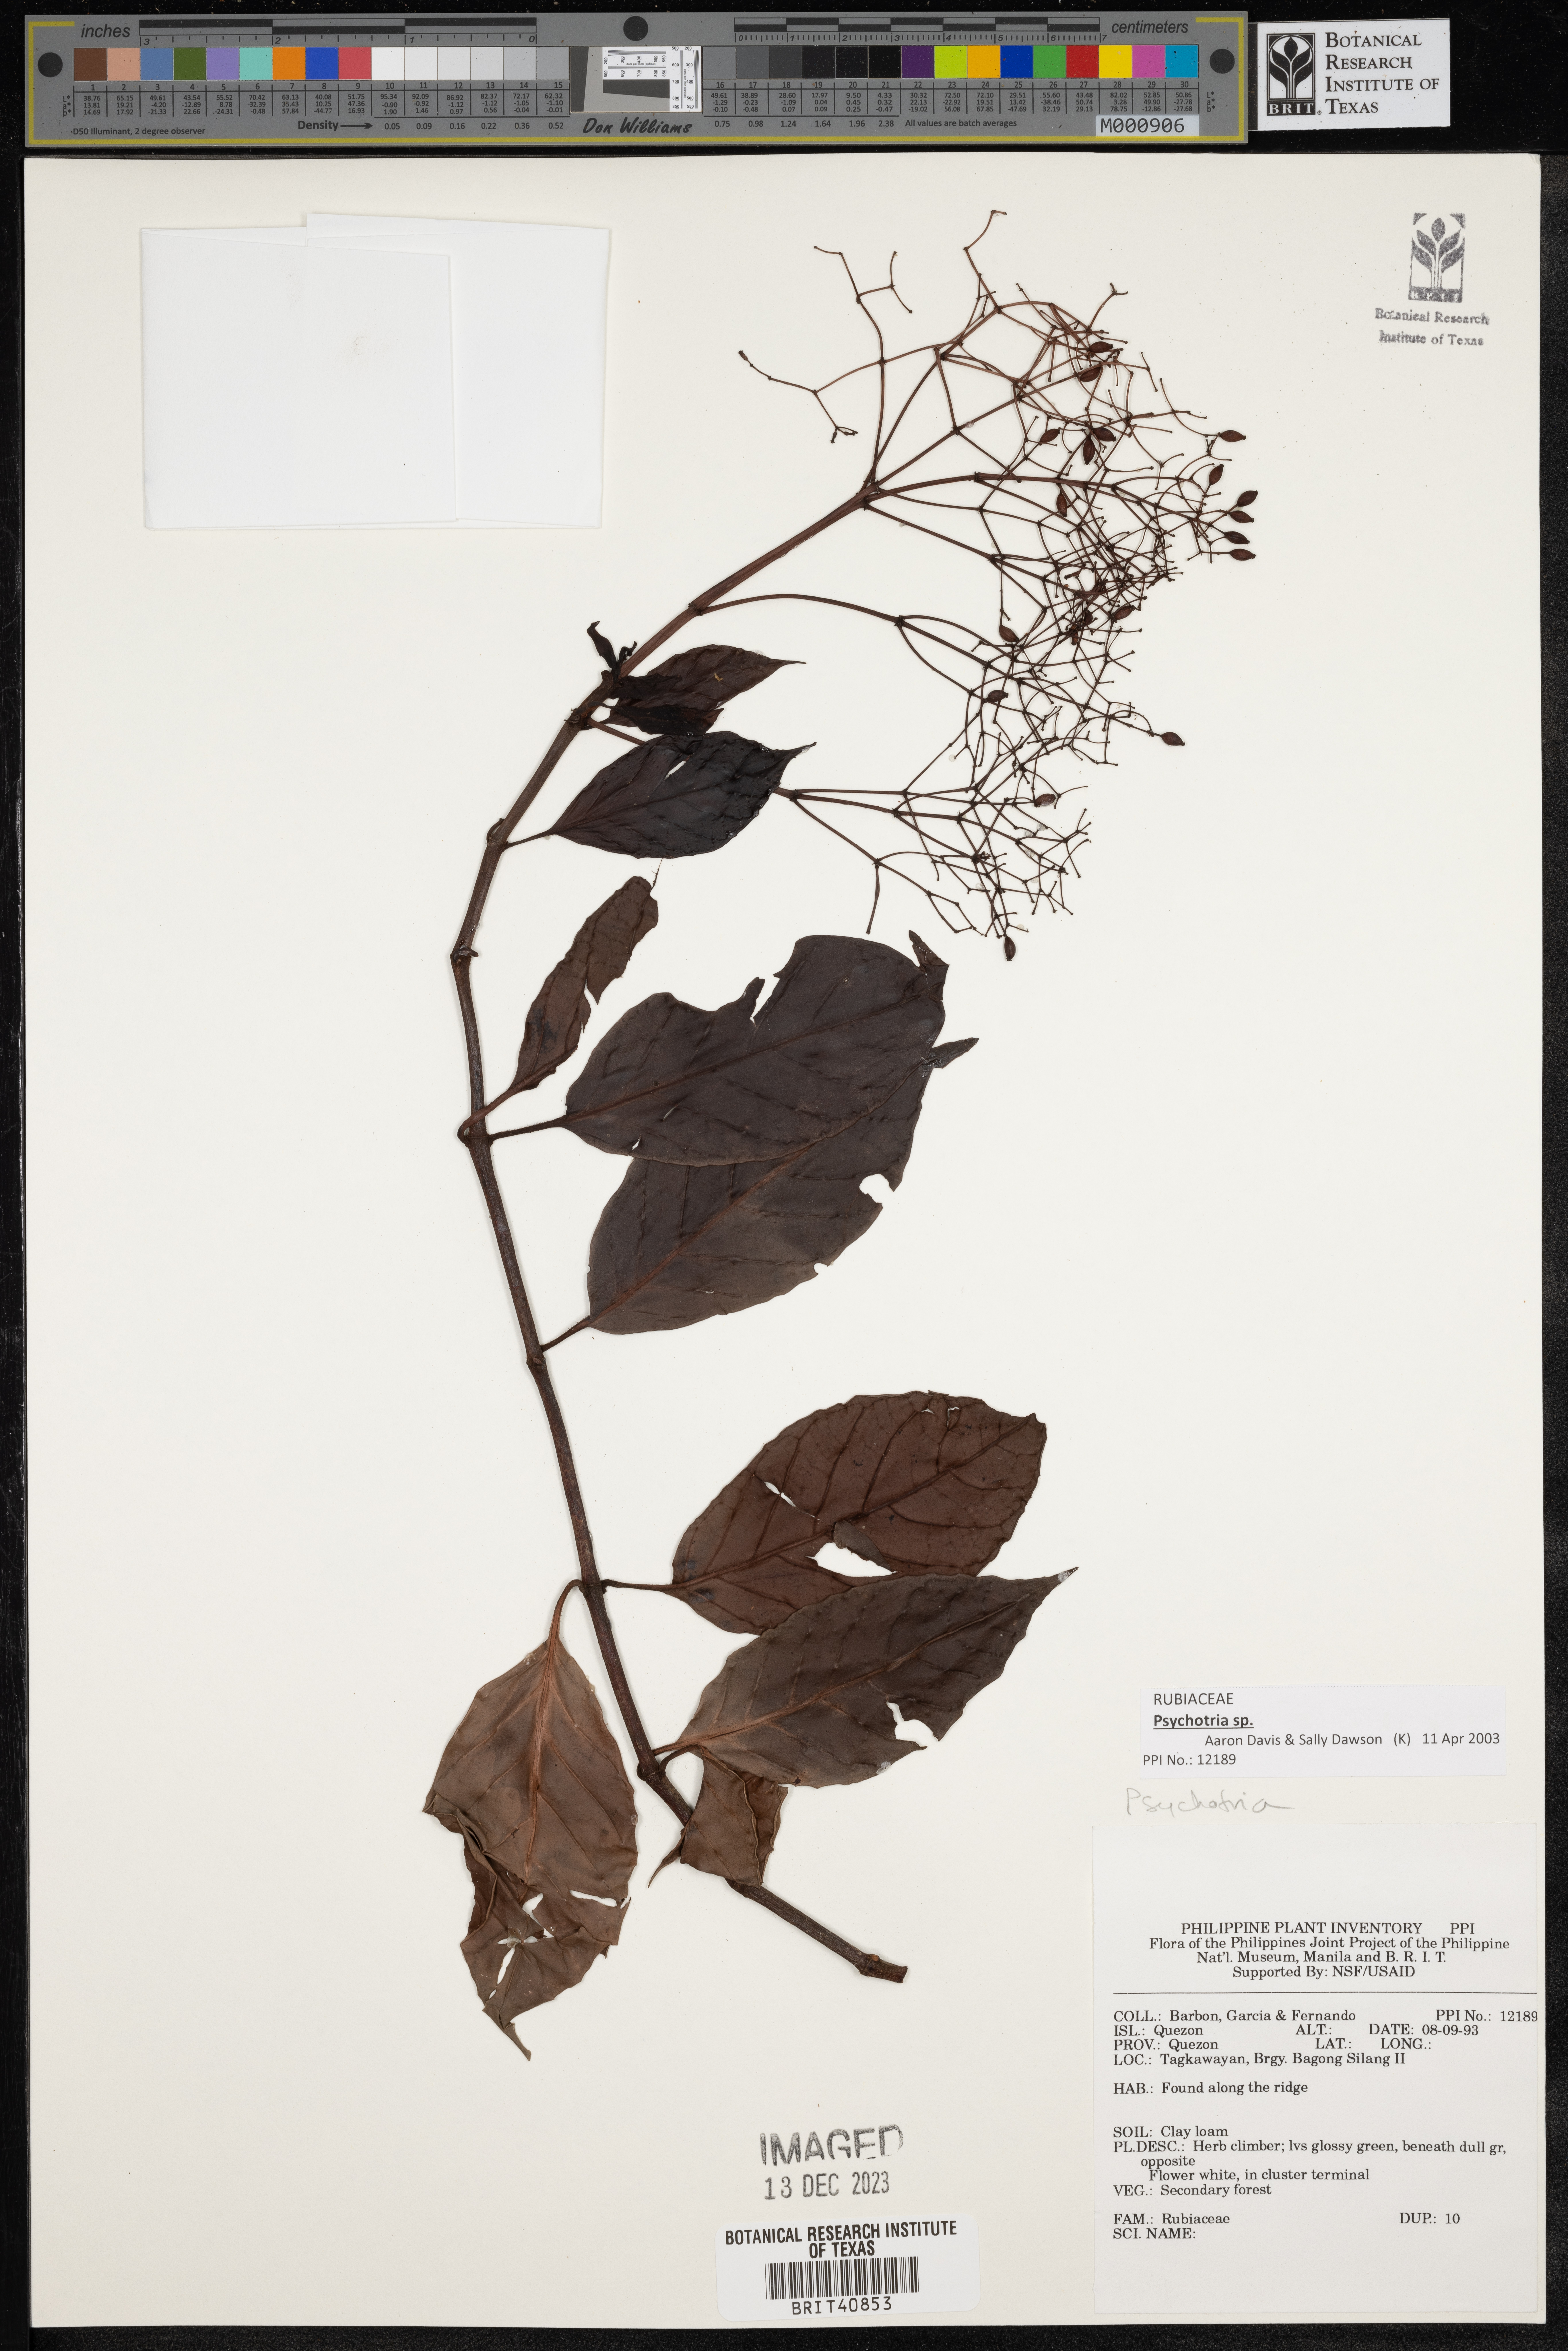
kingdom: Plantae
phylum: Tracheophyta
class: Magnoliopsida
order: Gentianales
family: Rubiaceae
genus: Psychotria
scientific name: Psychotria
